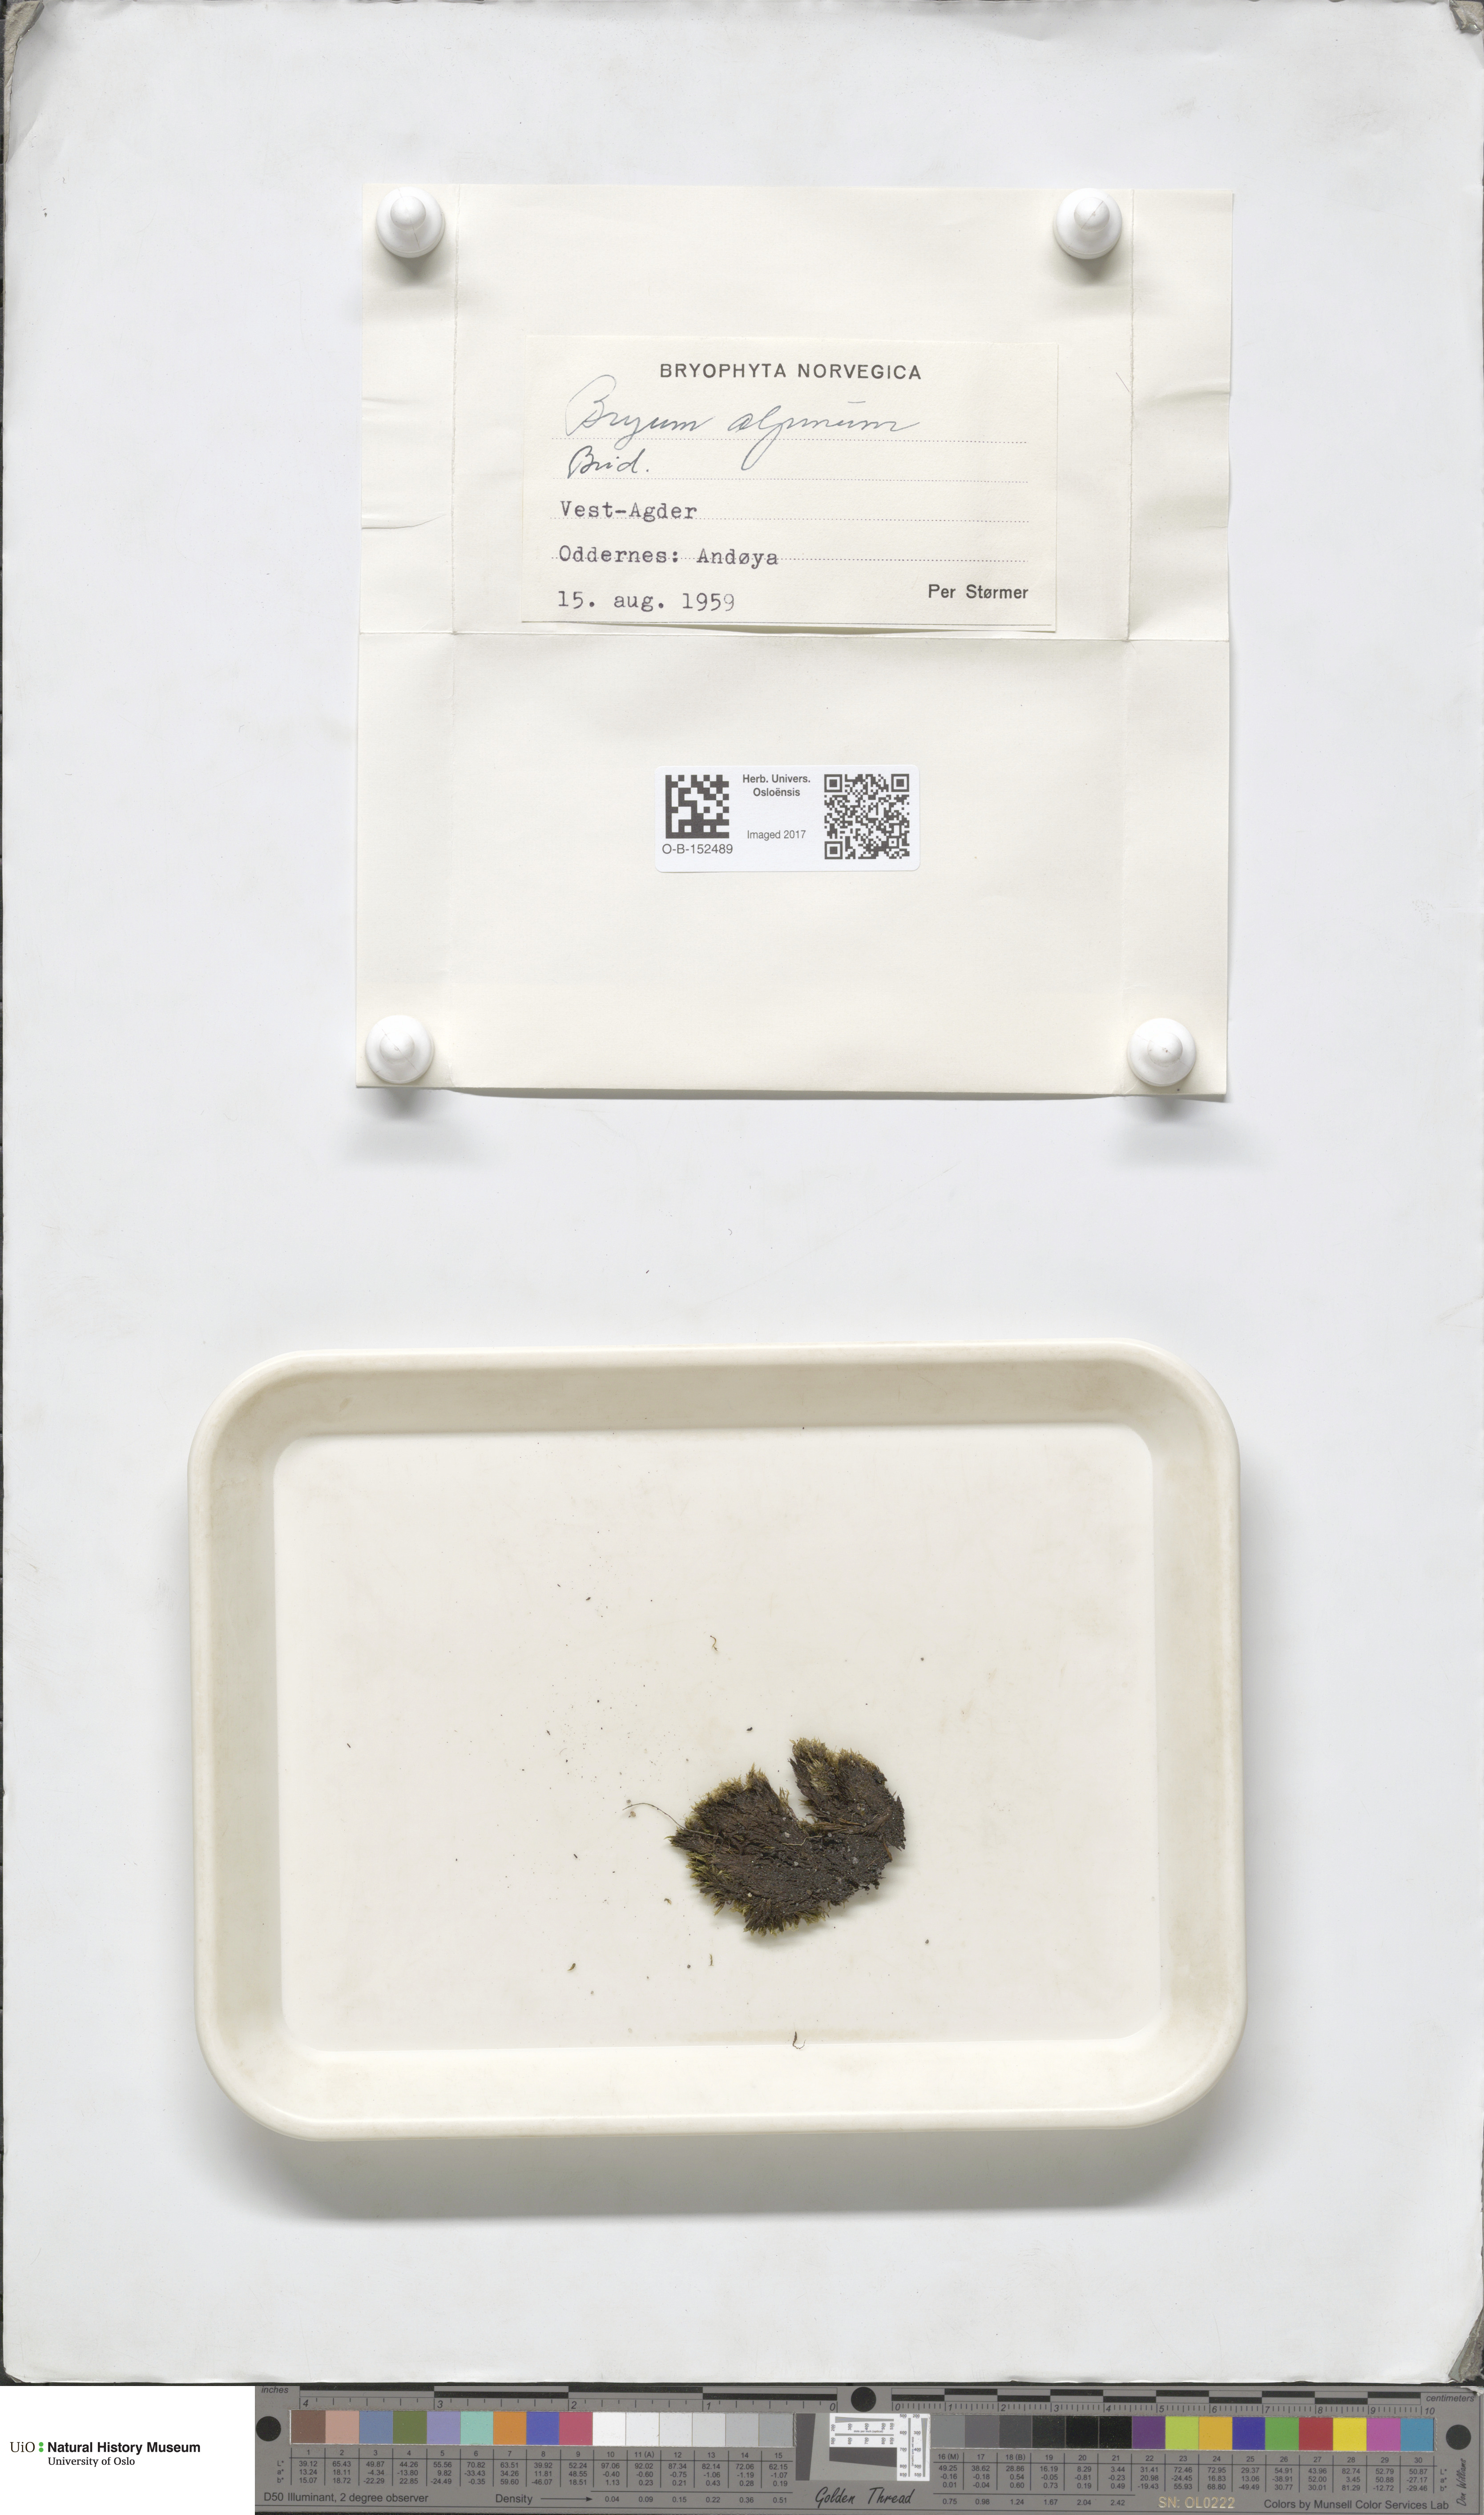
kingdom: Plantae
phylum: Bryophyta
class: Bryopsida
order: Bryales
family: Bryaceae
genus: Imbribryum
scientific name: Imbribryum alpinum
